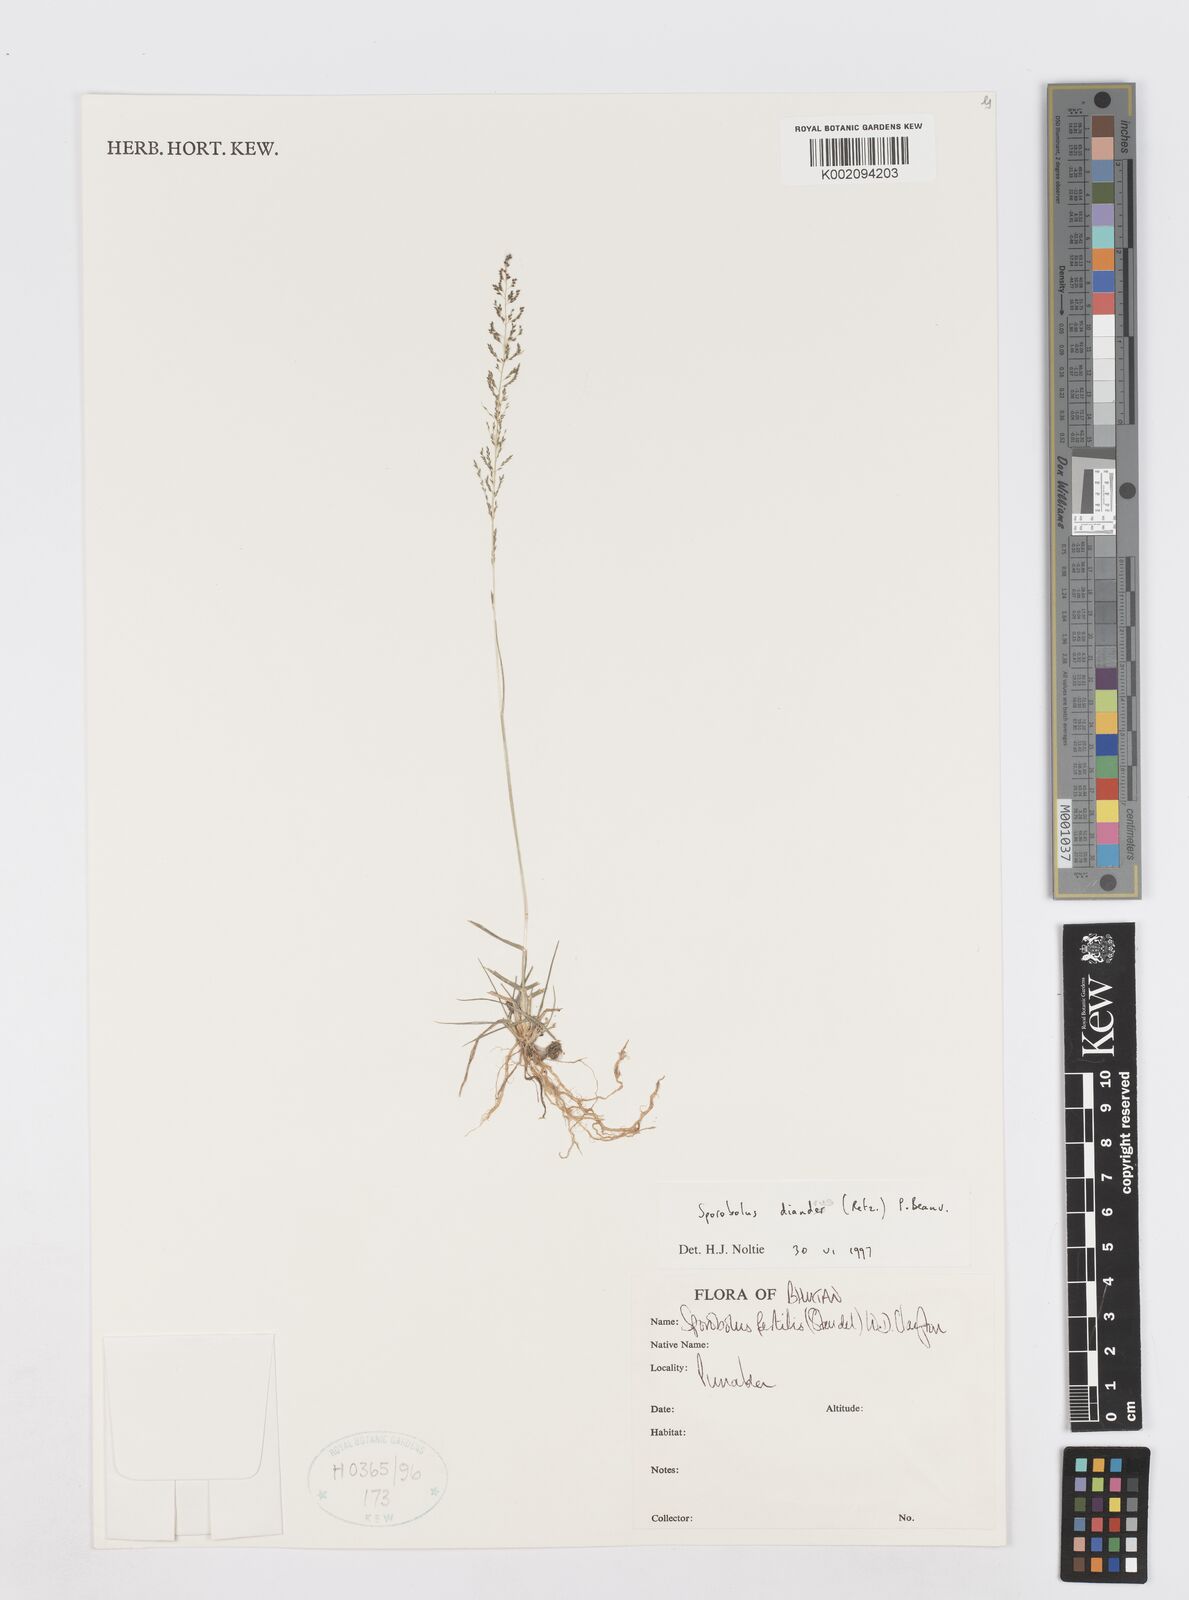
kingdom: Plantae
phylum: Tracheophyta
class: Liliopsida
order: Poales
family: Poaceae
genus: Sporobolus
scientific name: Sporobolus diandrus
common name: Tussock dropseed
